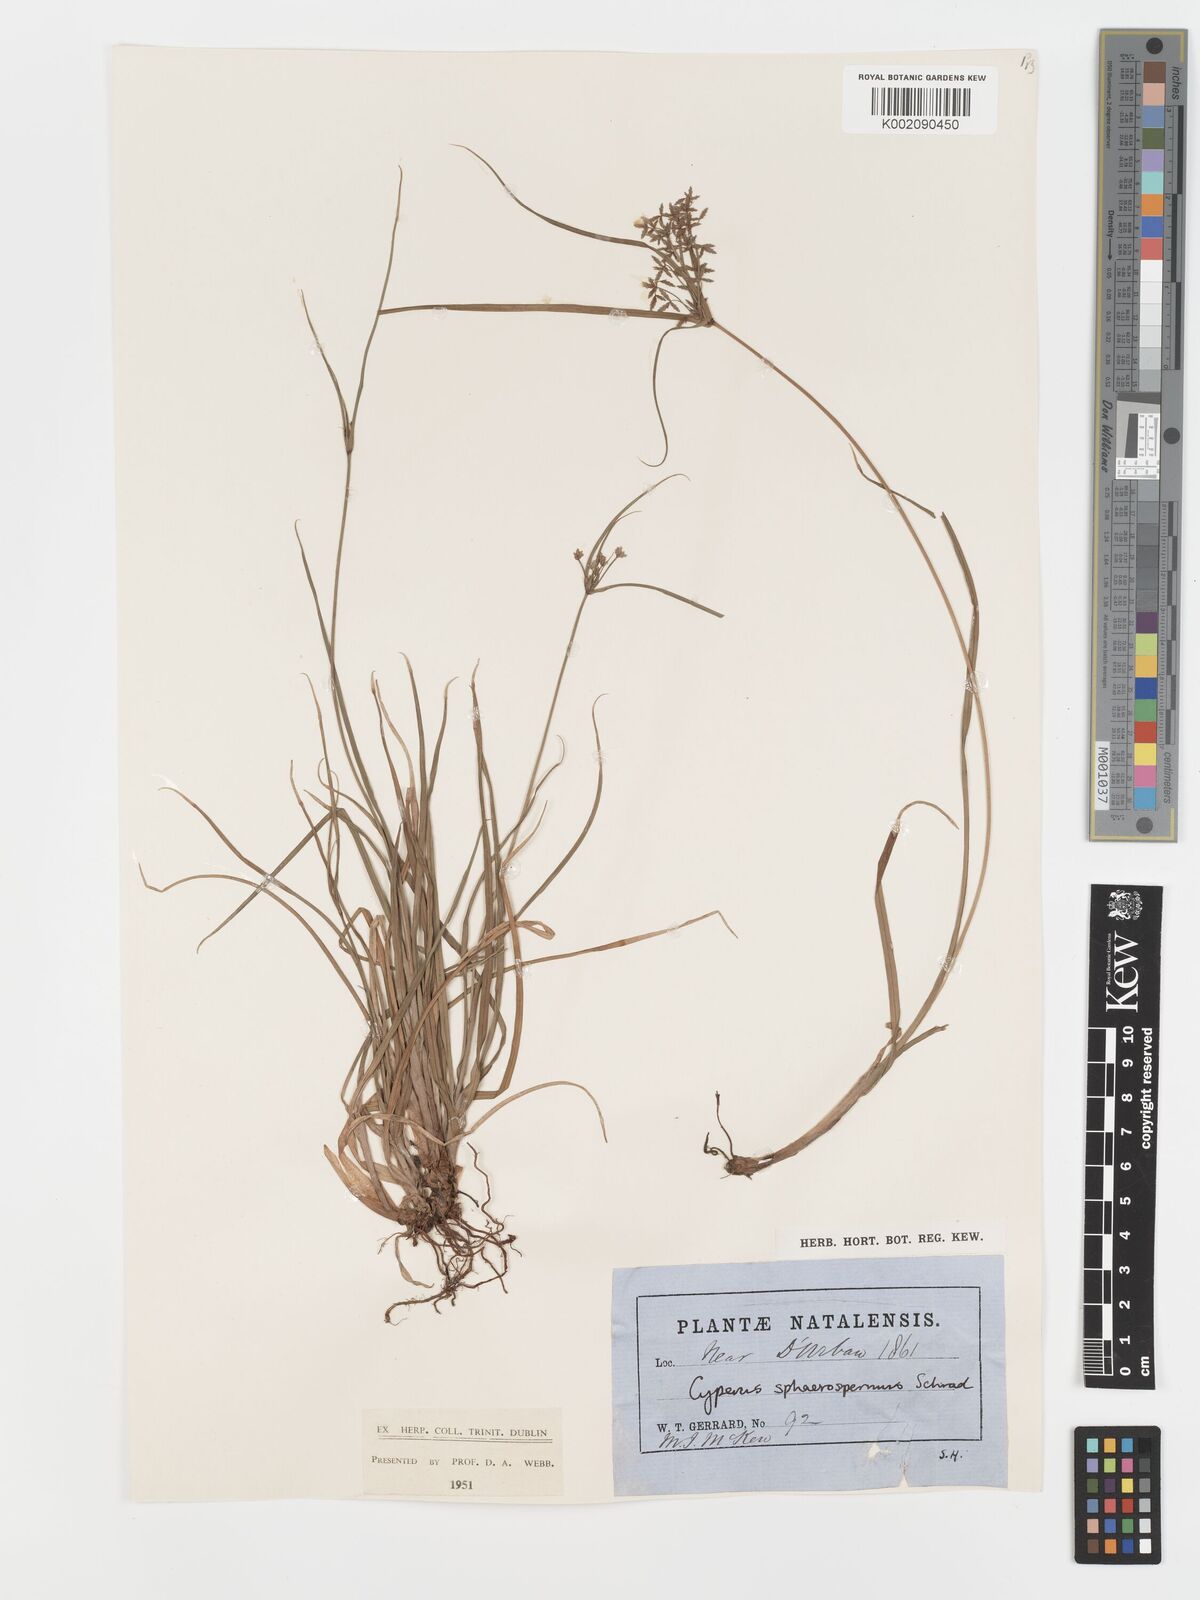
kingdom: Plantae
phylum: Tracheophyta
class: Liliopsida
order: Poales
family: Cyperaceae
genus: Cyperus
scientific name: Cyperus sphaerospermus
